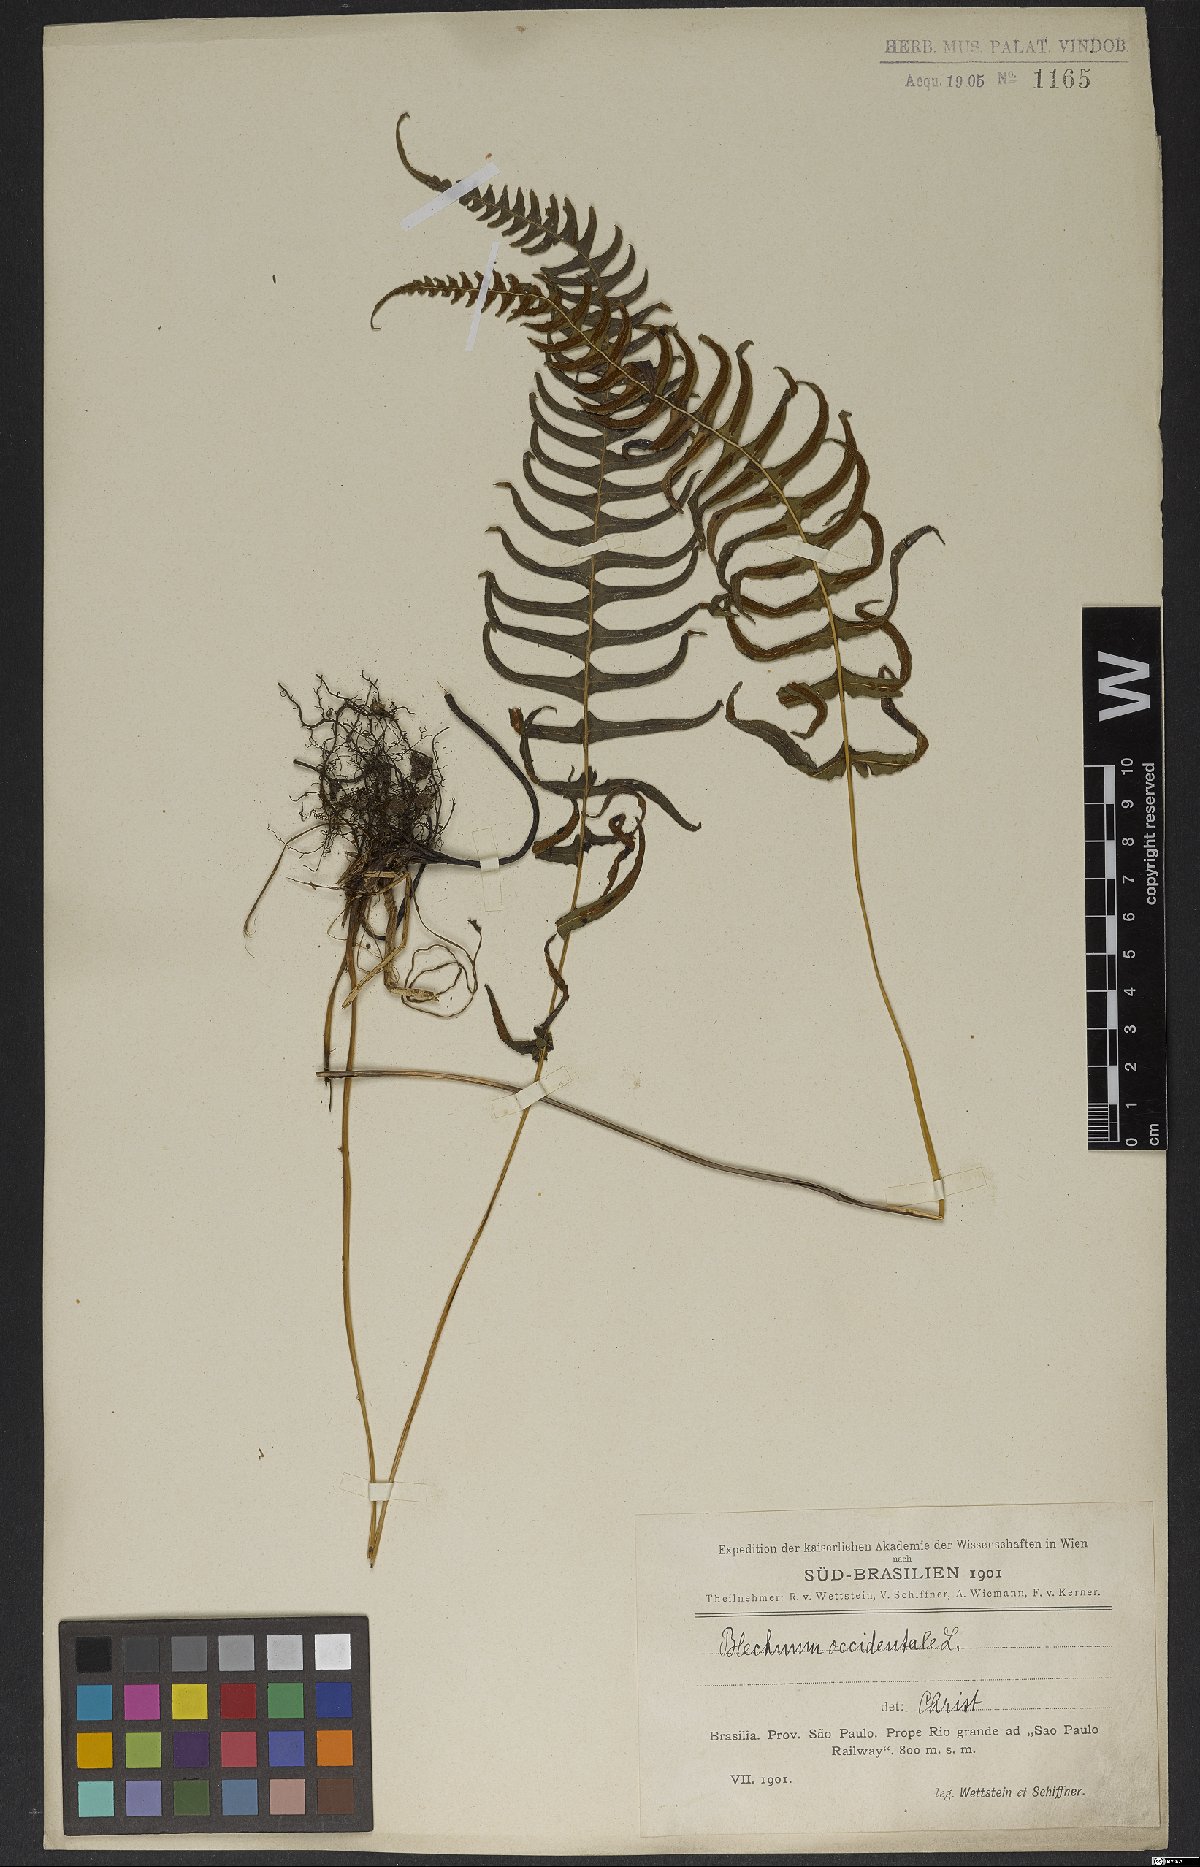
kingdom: Plantae
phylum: Tracheophyta
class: Polypodiopsida
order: Polypodiales
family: Blechnaceae
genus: Blechnum
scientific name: Blechnum occidentale
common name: Hammock fern
